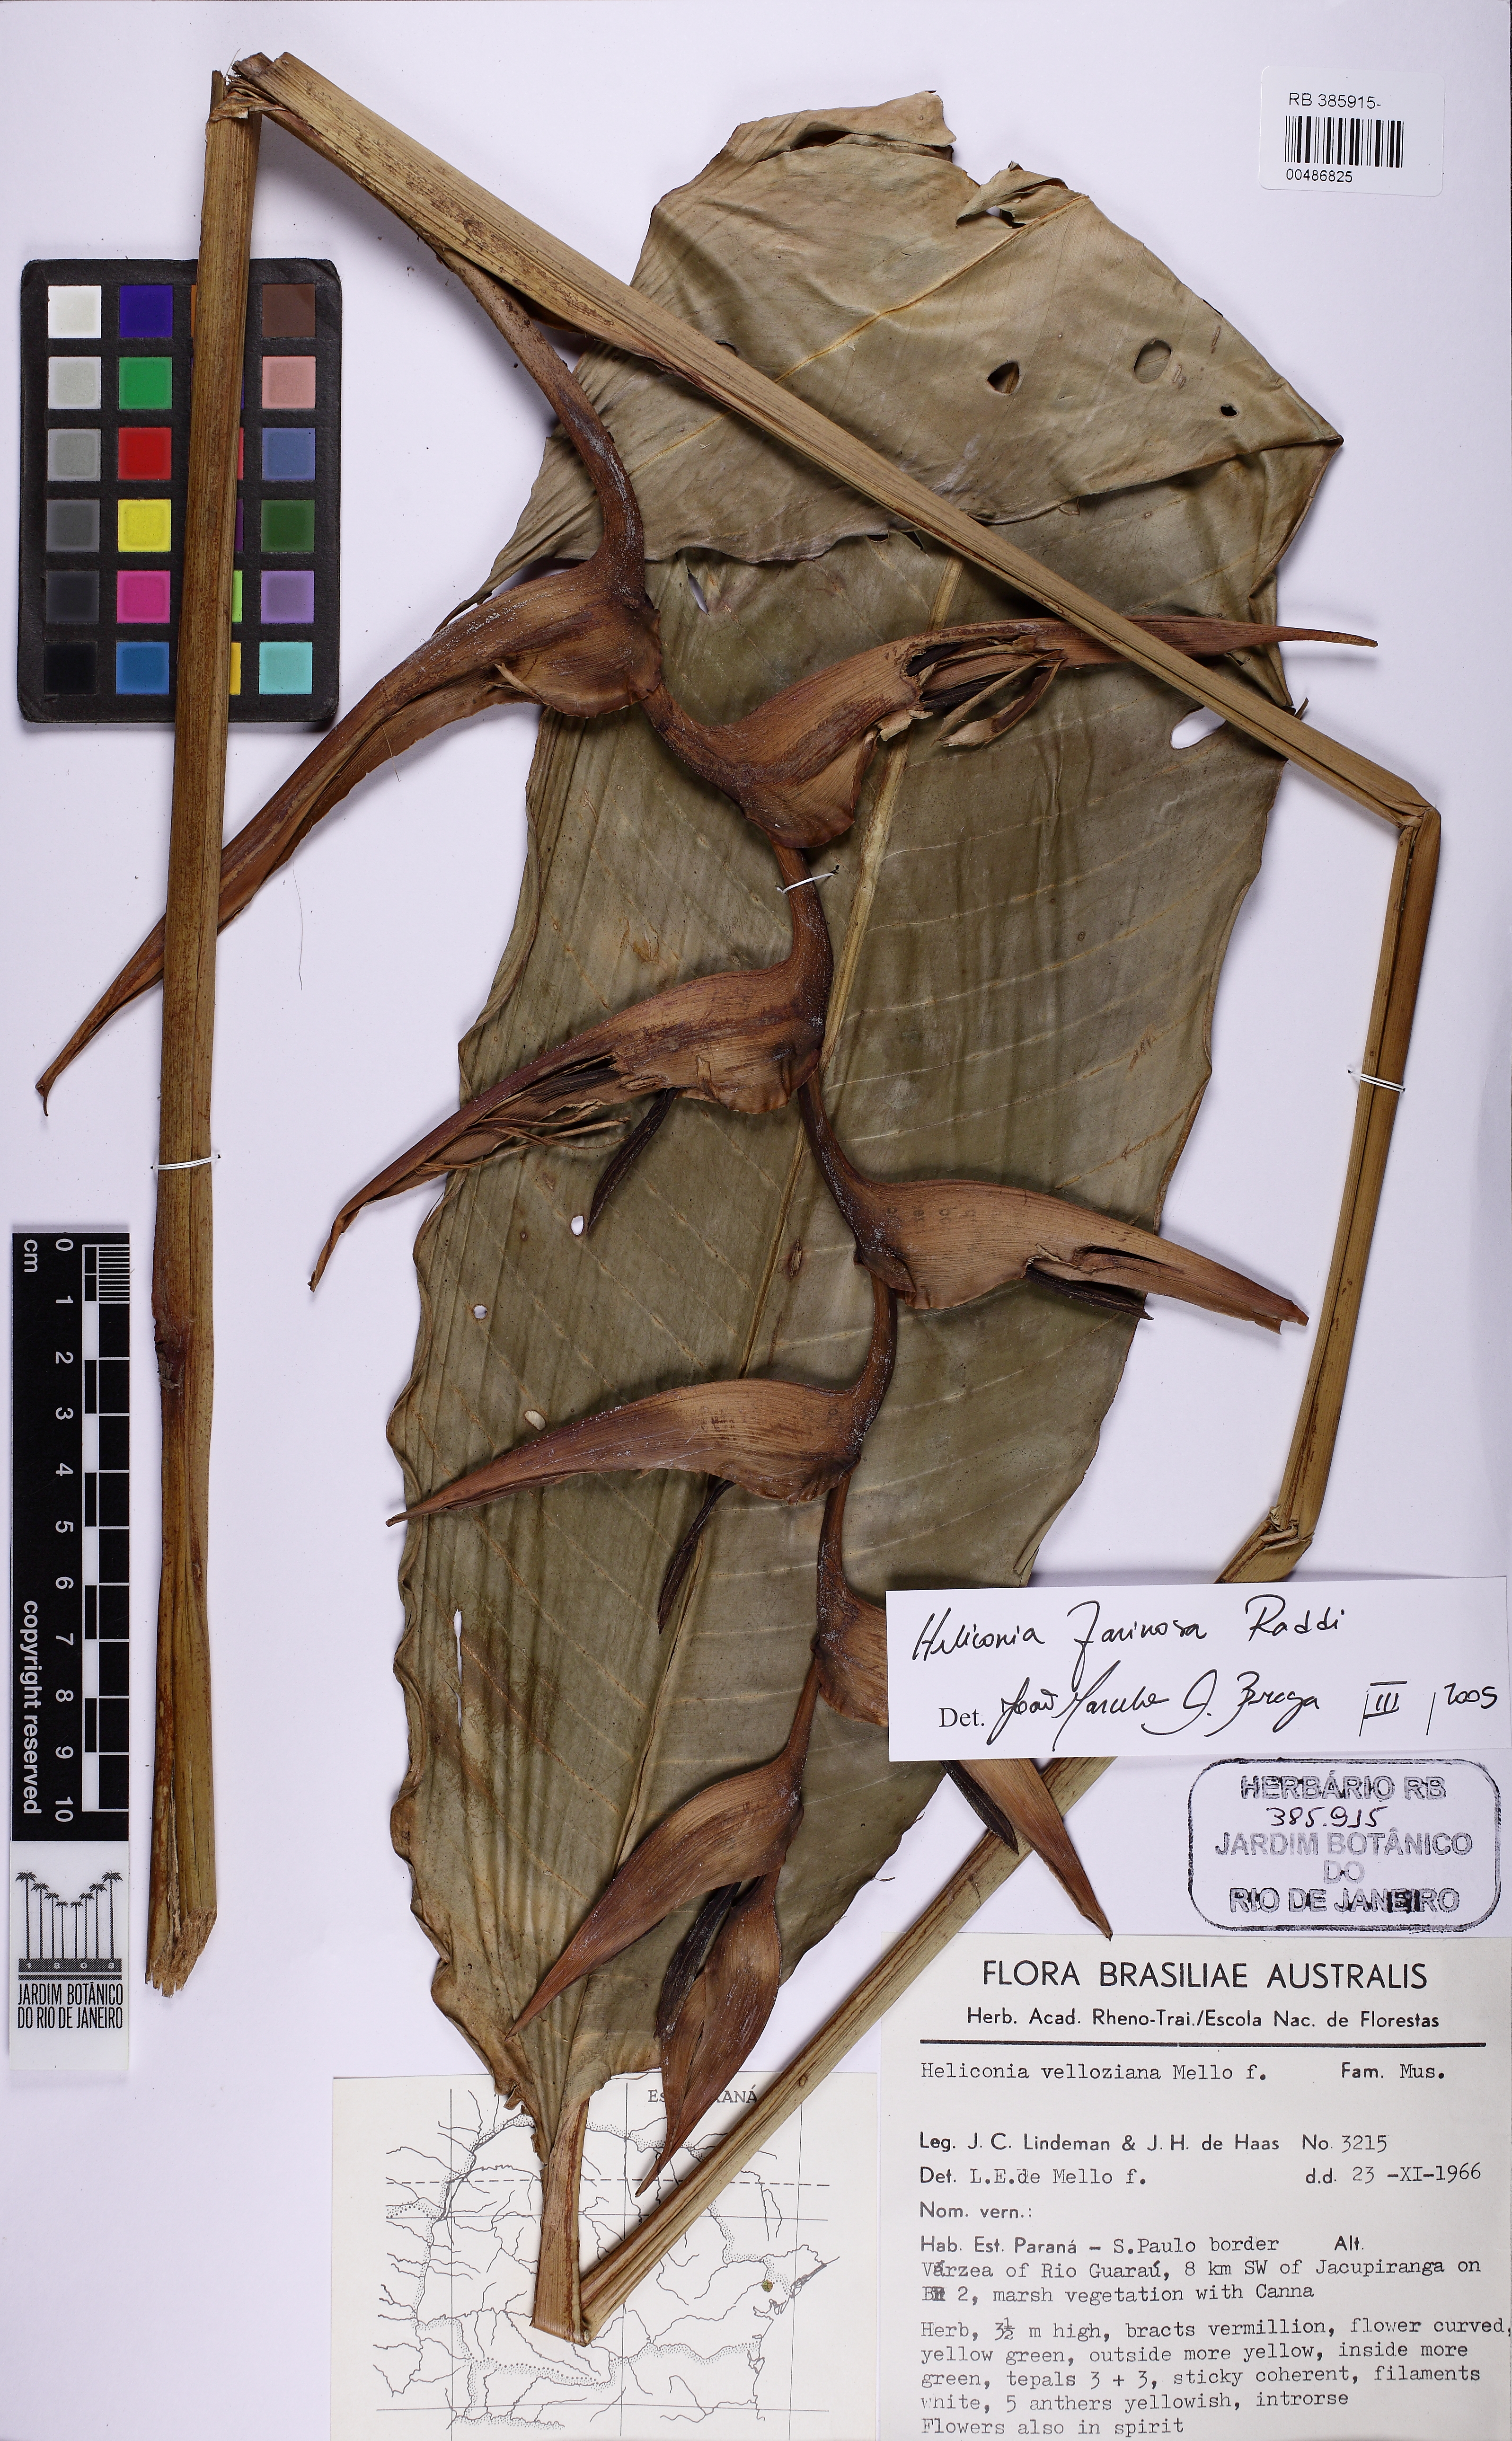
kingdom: Plantae
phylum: Tracheophyta
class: Liliopsida
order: Zingiberales
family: Heliconiaceae
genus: Heliconia
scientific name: Heliconia farinosa
